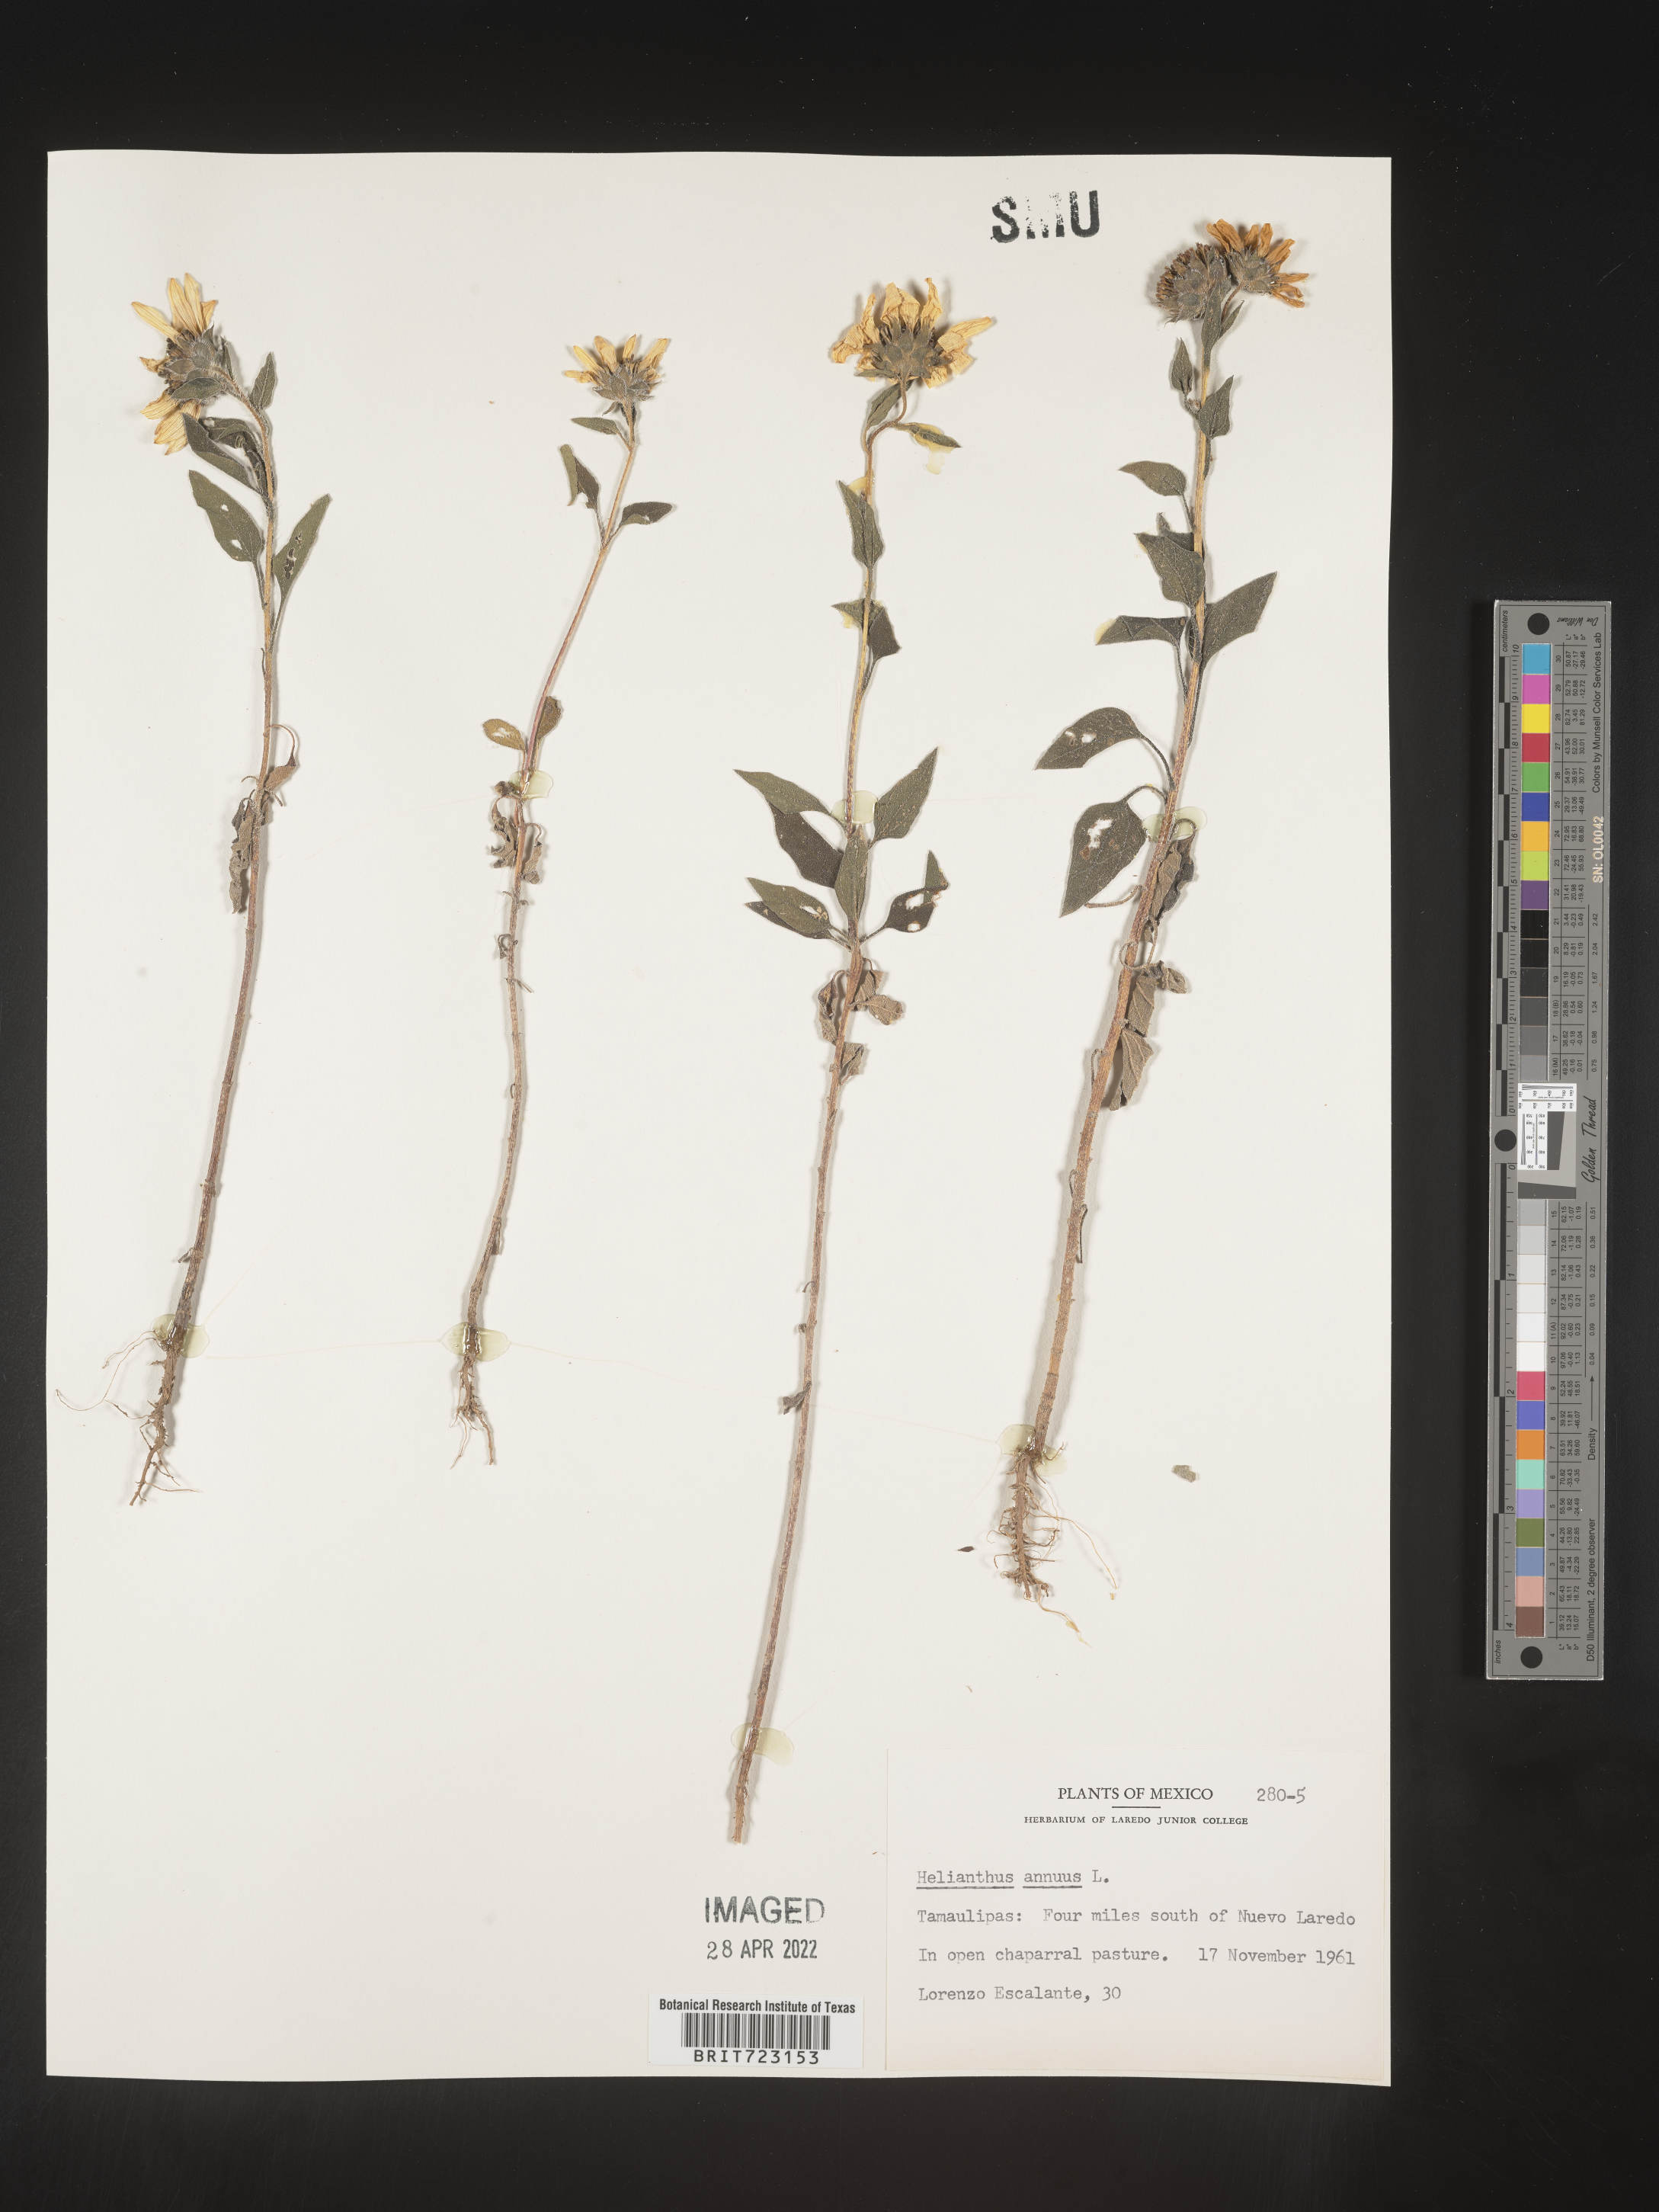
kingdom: Plantae
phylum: Tracheophyta
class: Magnoliopsida
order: Asterales
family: Asteraceae
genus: Helianthus
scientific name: Helianthus
